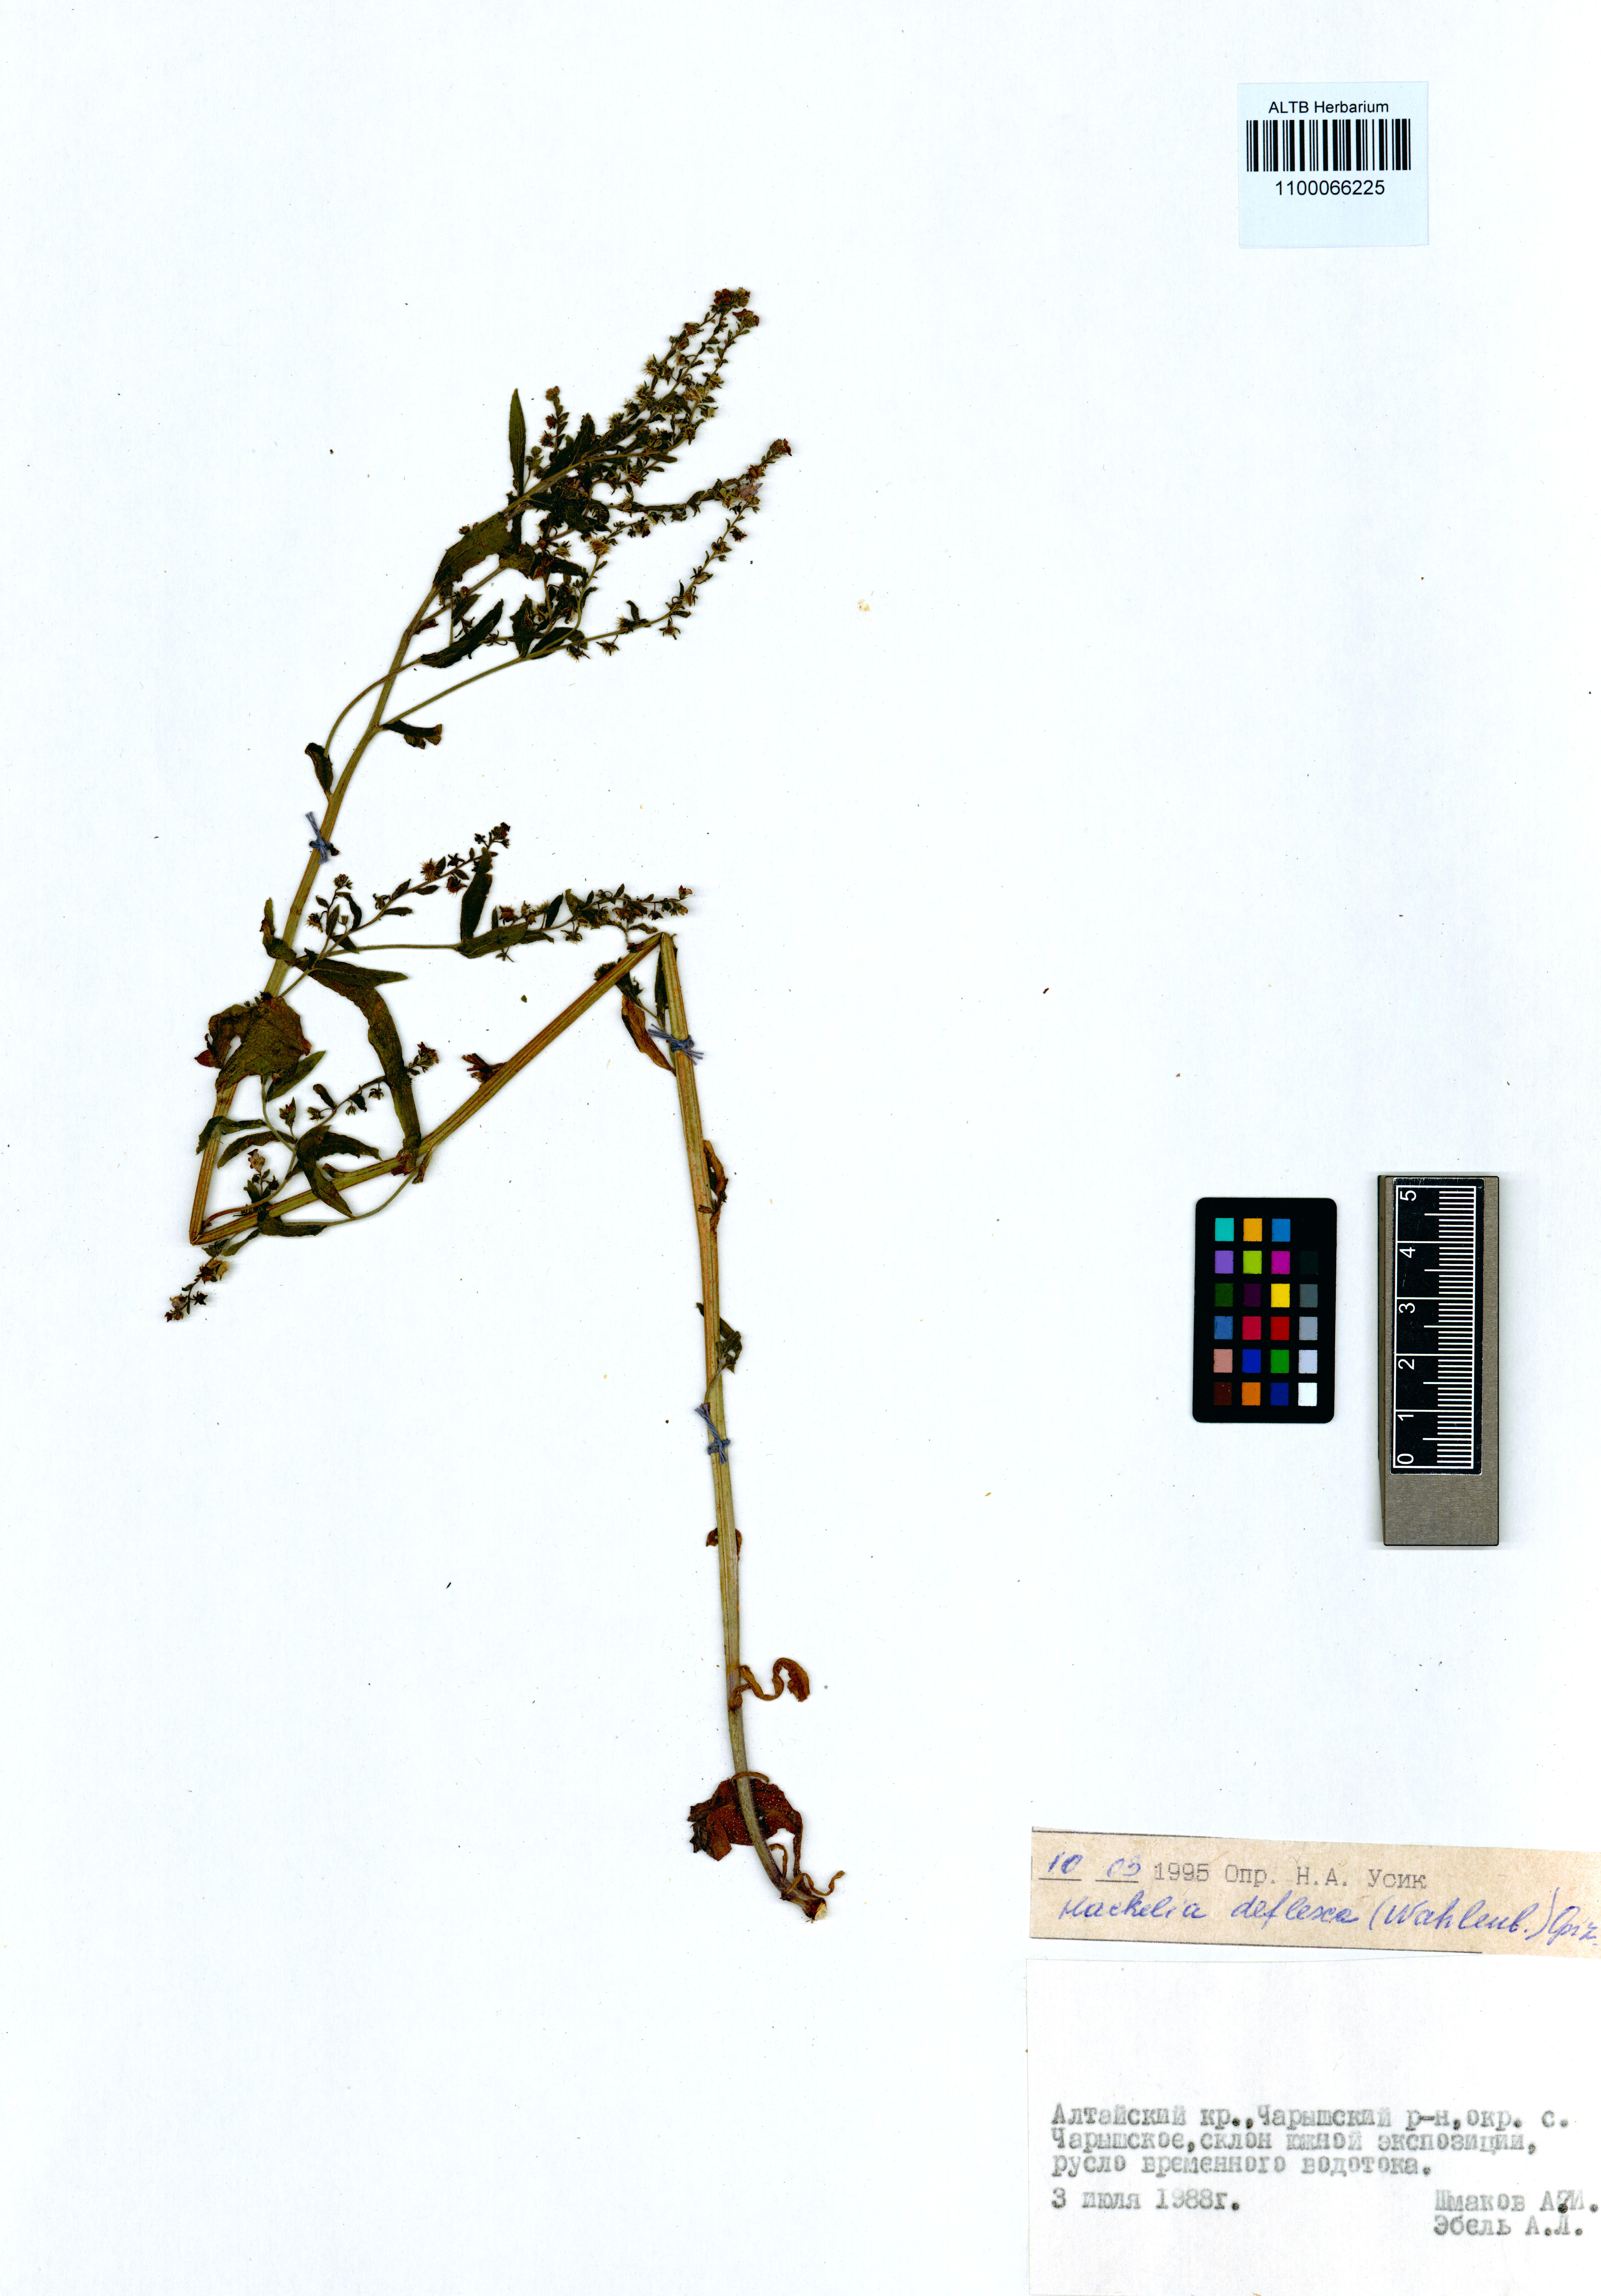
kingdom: Plantae
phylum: Tracheophyta
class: Magnoliopsida
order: Boraginales
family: Boraginaceae
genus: Hackelia
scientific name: Hackelia deflexa
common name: Nodding stickseed
